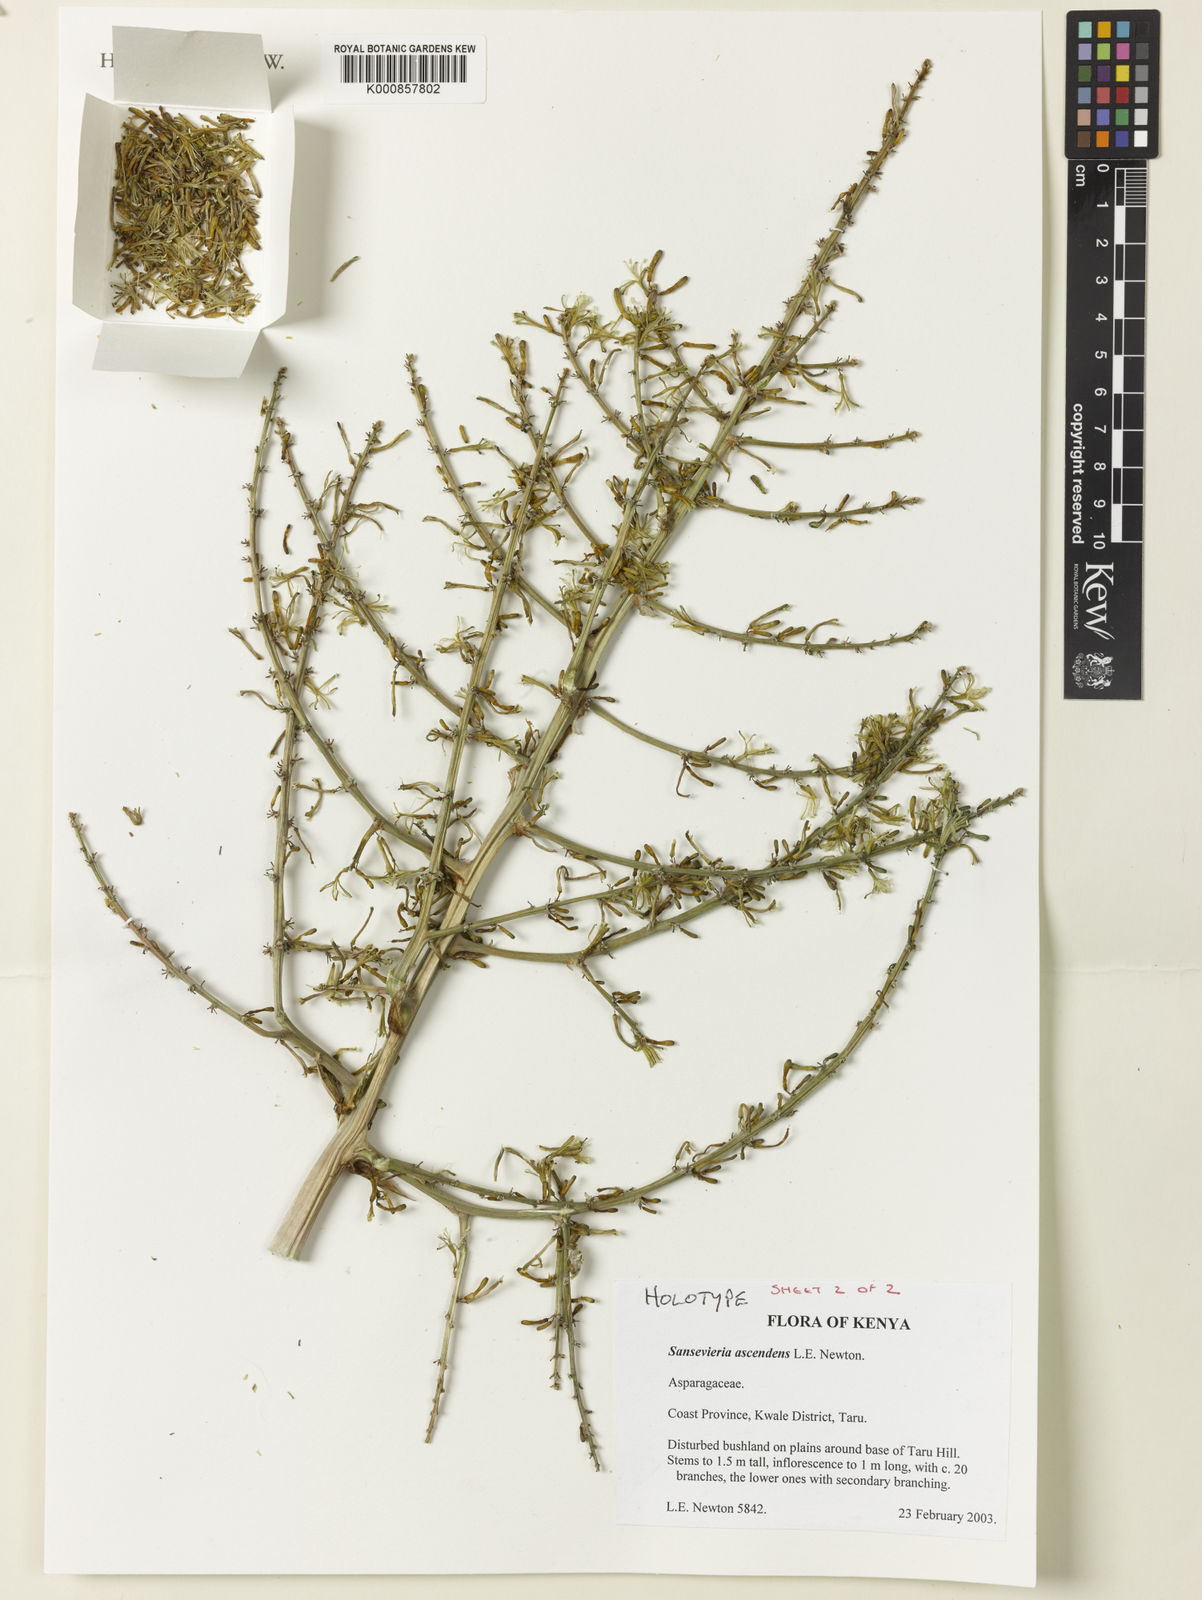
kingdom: Plantae
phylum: Tracheophyta
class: Liliopsida
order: Asparagales
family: Asparagaceae
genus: Dracaena
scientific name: Dracaena ascendens
